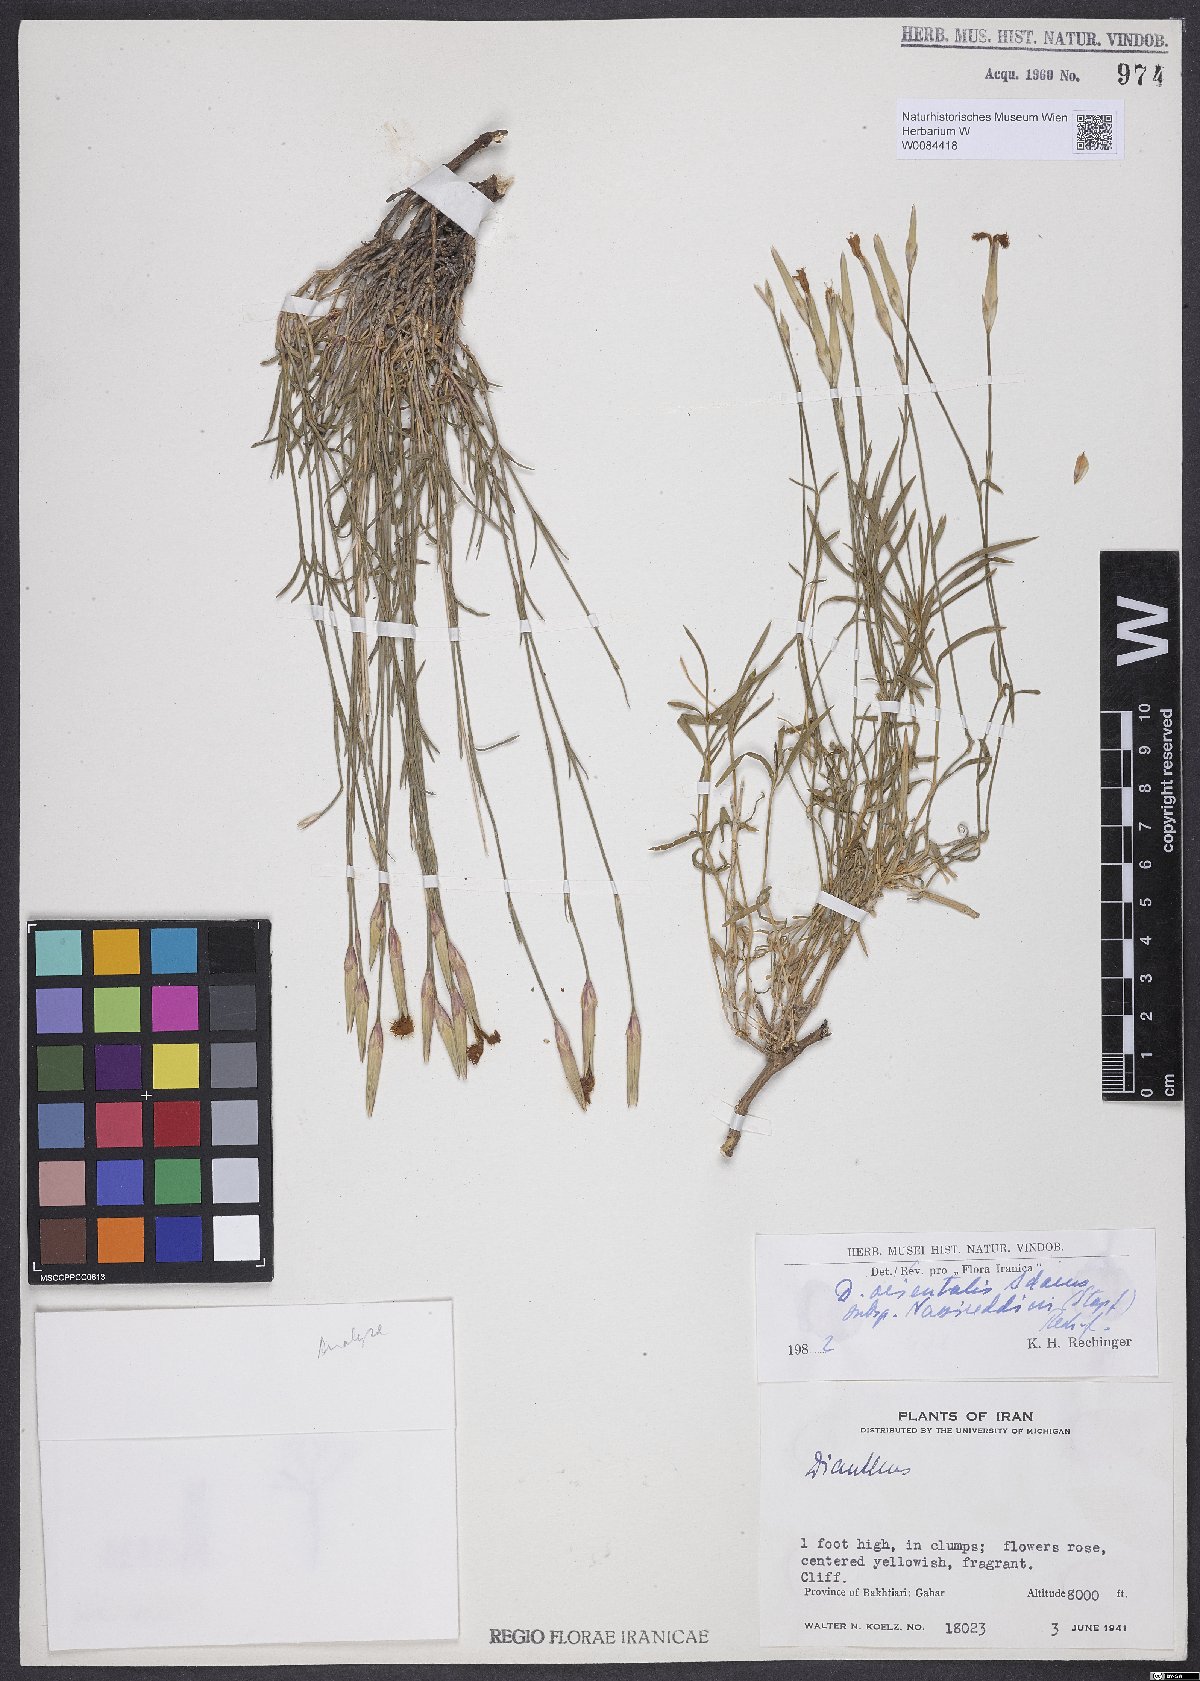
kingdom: Plantae
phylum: Tracheophyta
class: Magnoliopsida
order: Caryophyllales
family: Caryophyllaceae
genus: Dianthus
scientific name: Dianthus orientalis
